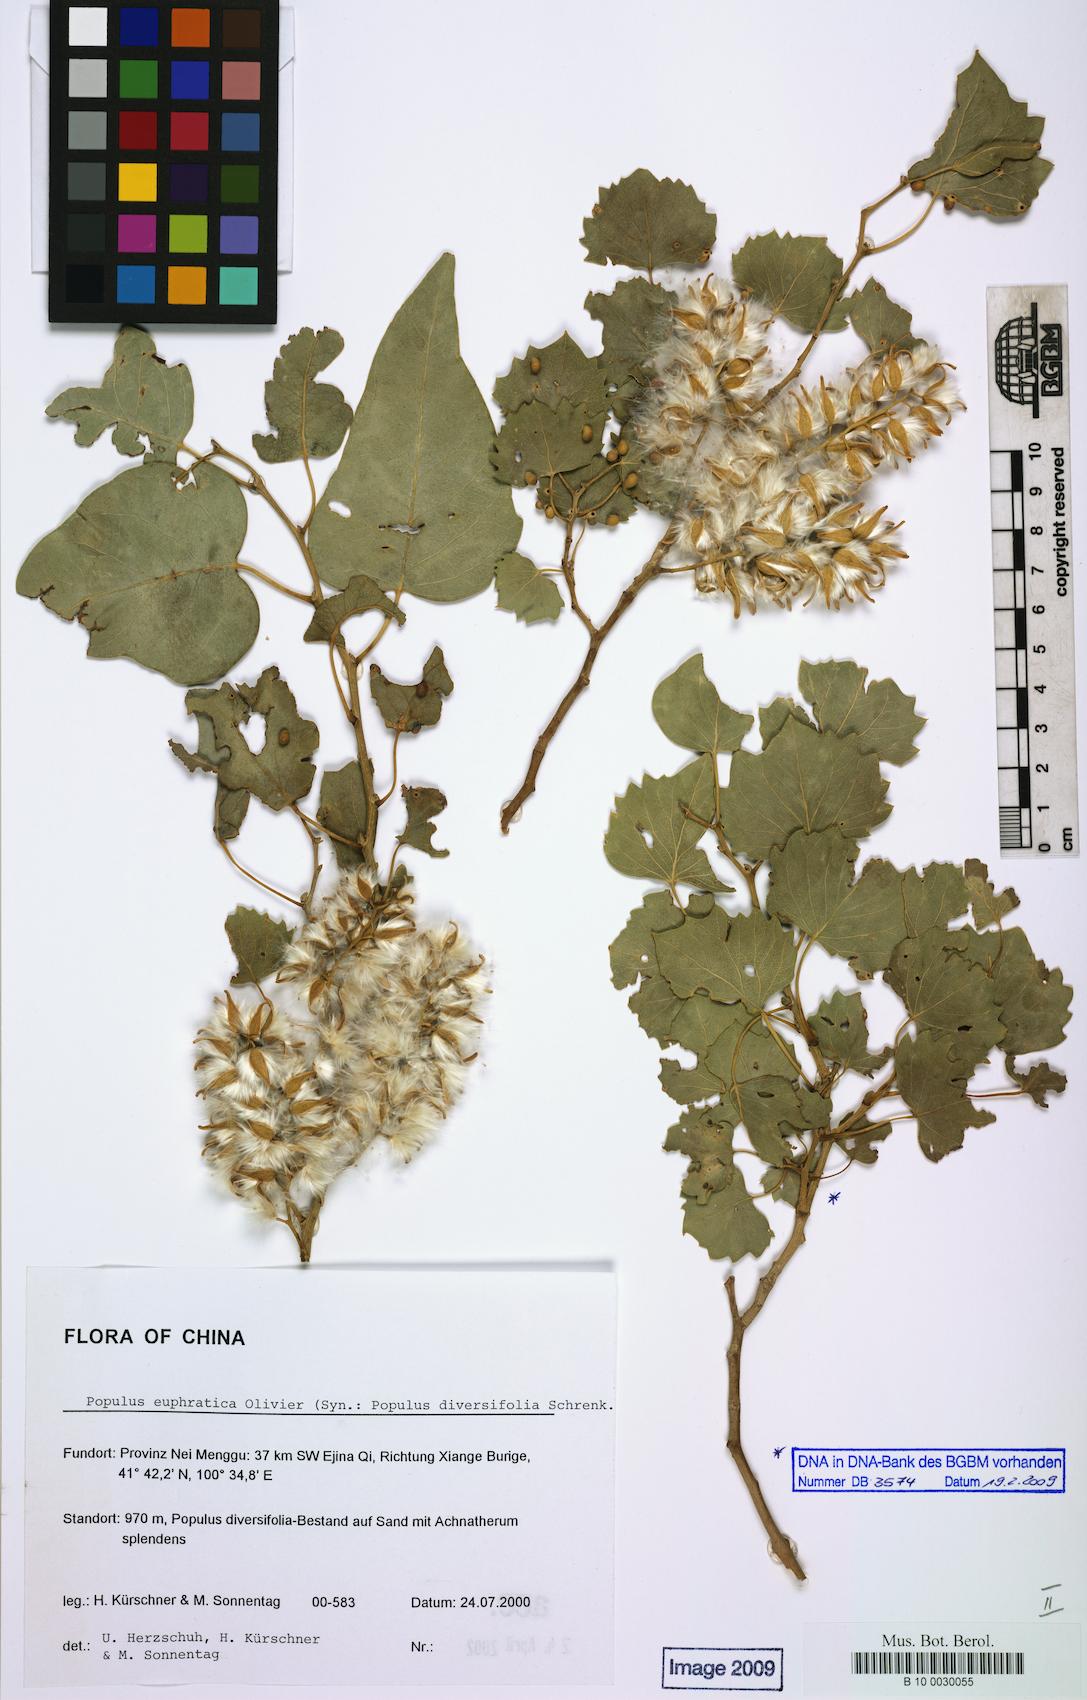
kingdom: Plantae
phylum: Tracheophyta
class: Magnoliopsida
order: Malpighiales
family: Salicaceae
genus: Populus
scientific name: Populus euphratica
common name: Euphrates poplar
